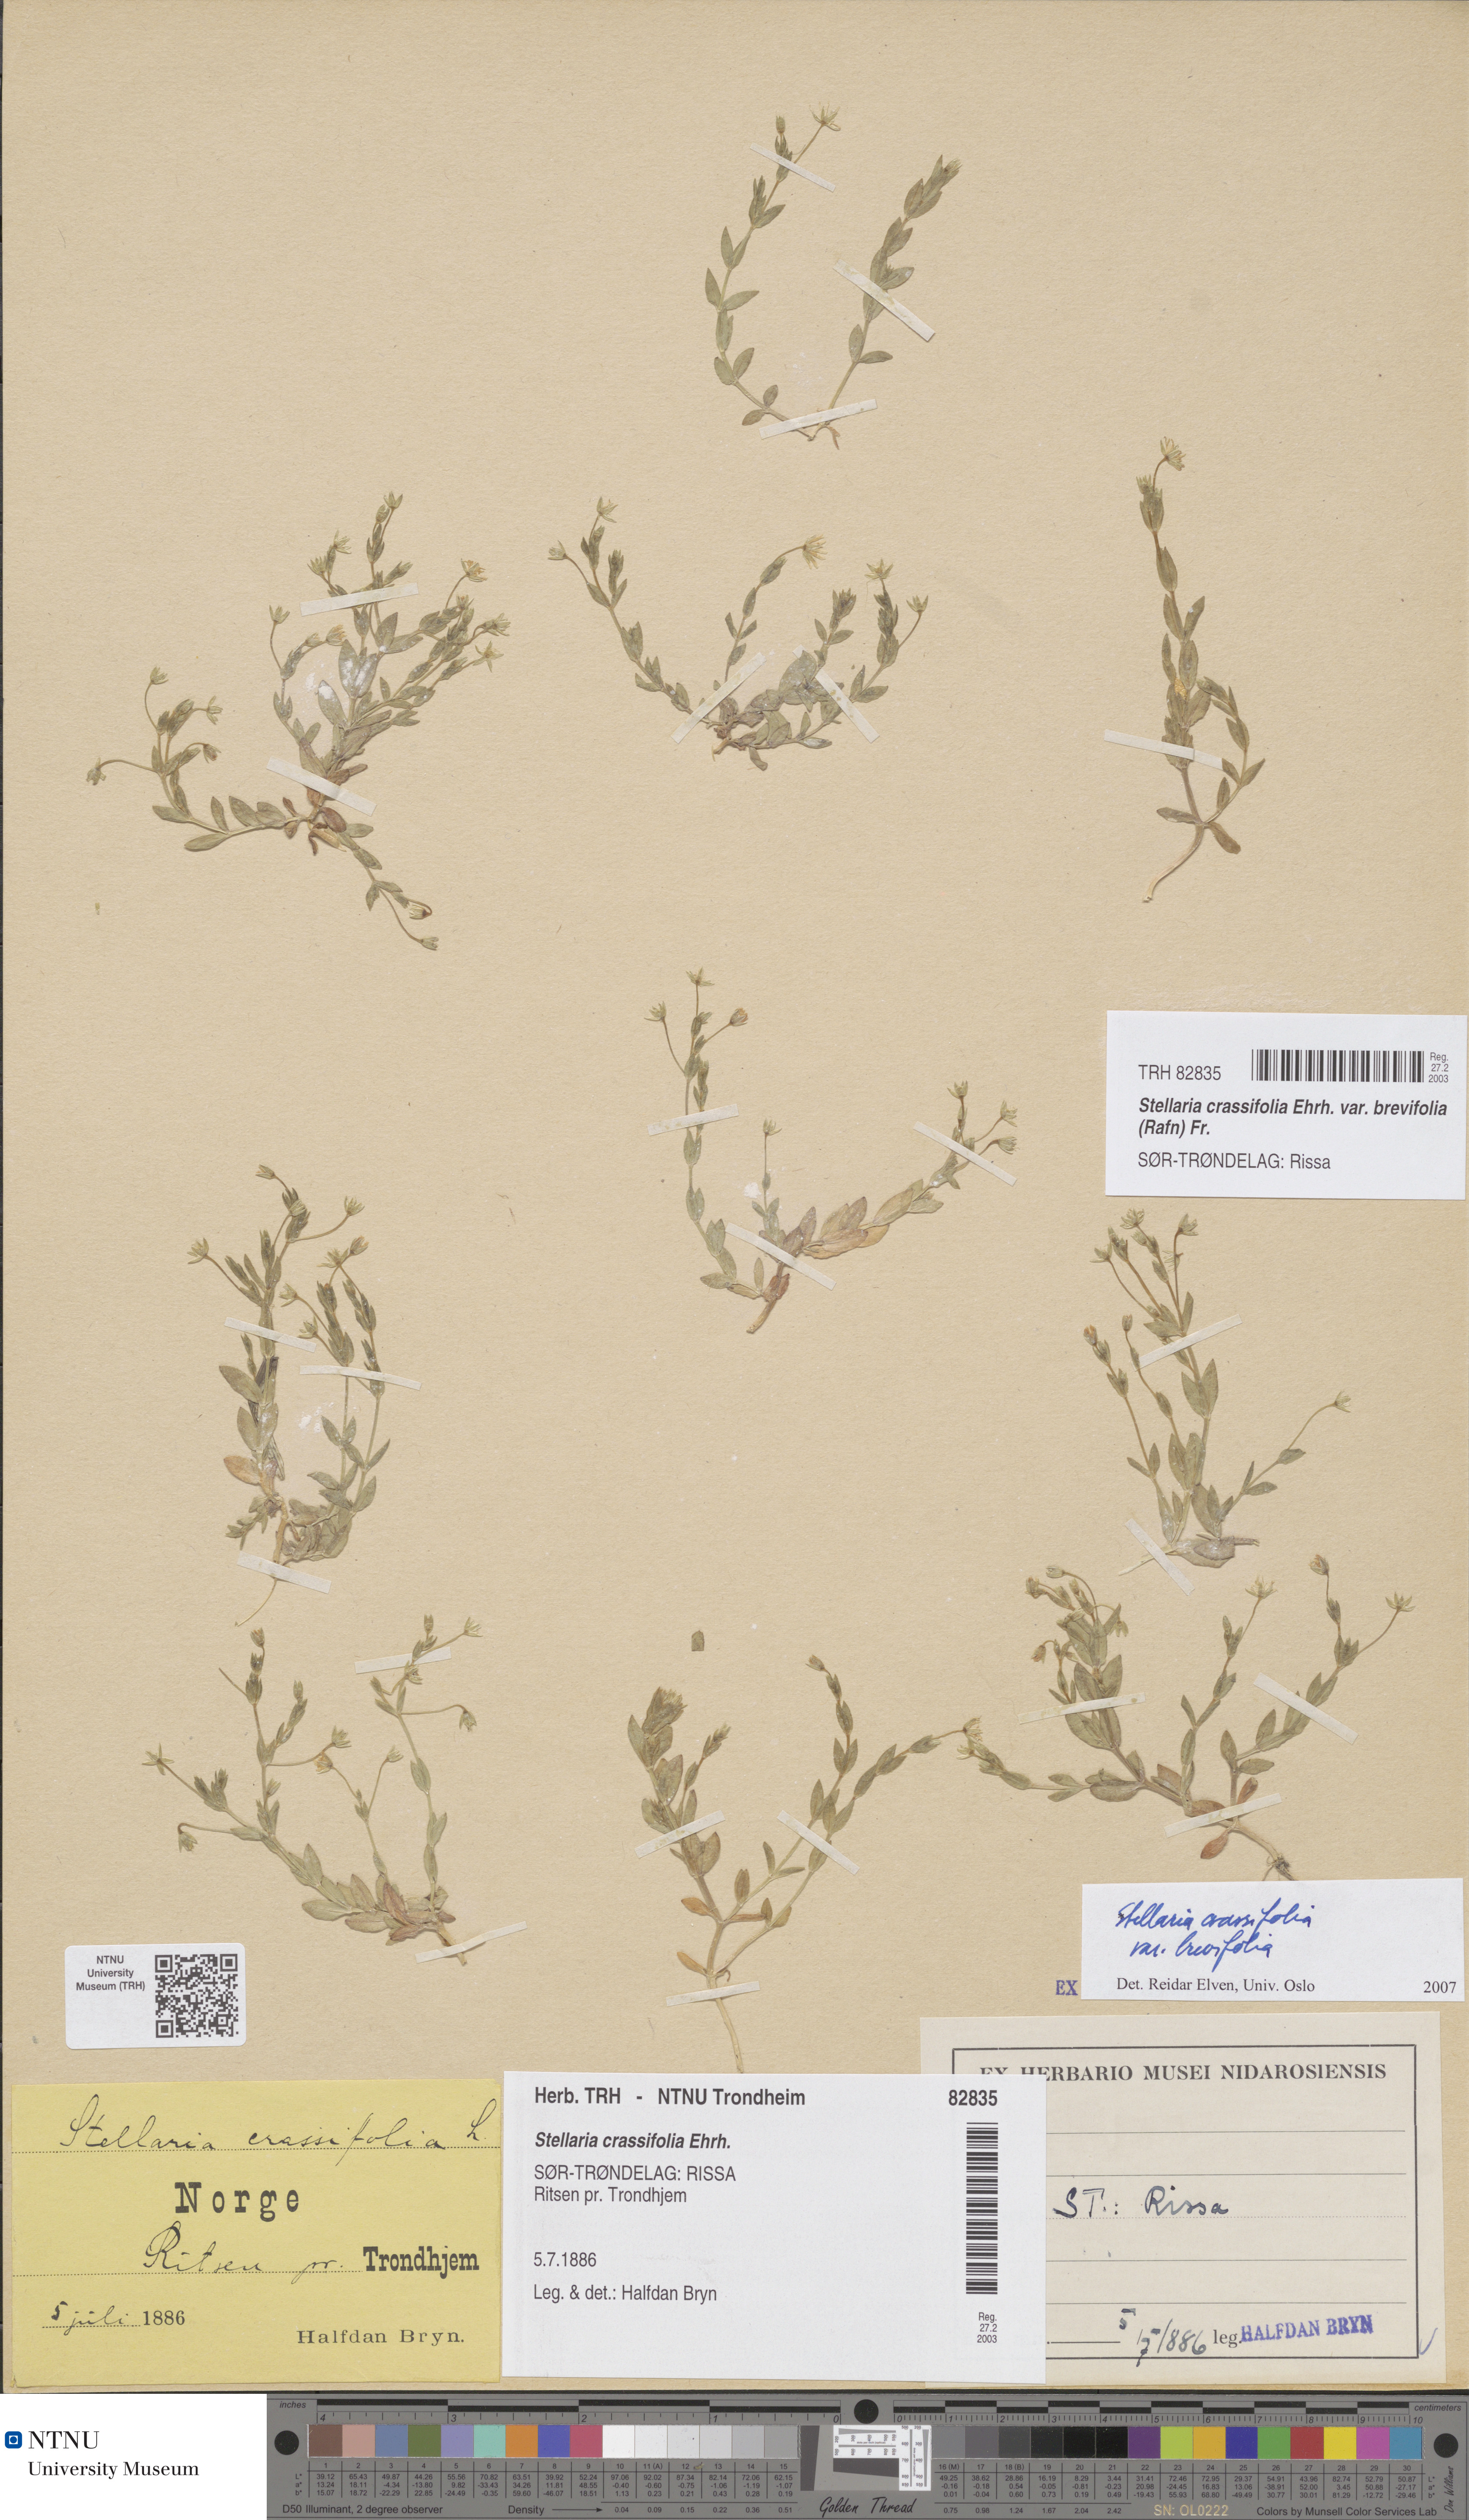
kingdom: Plantae
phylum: Tracheophyta
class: Magnoliopsida
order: Caryophyllales
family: Caryophyllaceae
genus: Stellaria
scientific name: Stellaria crassifolia
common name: Fleshy starwort
